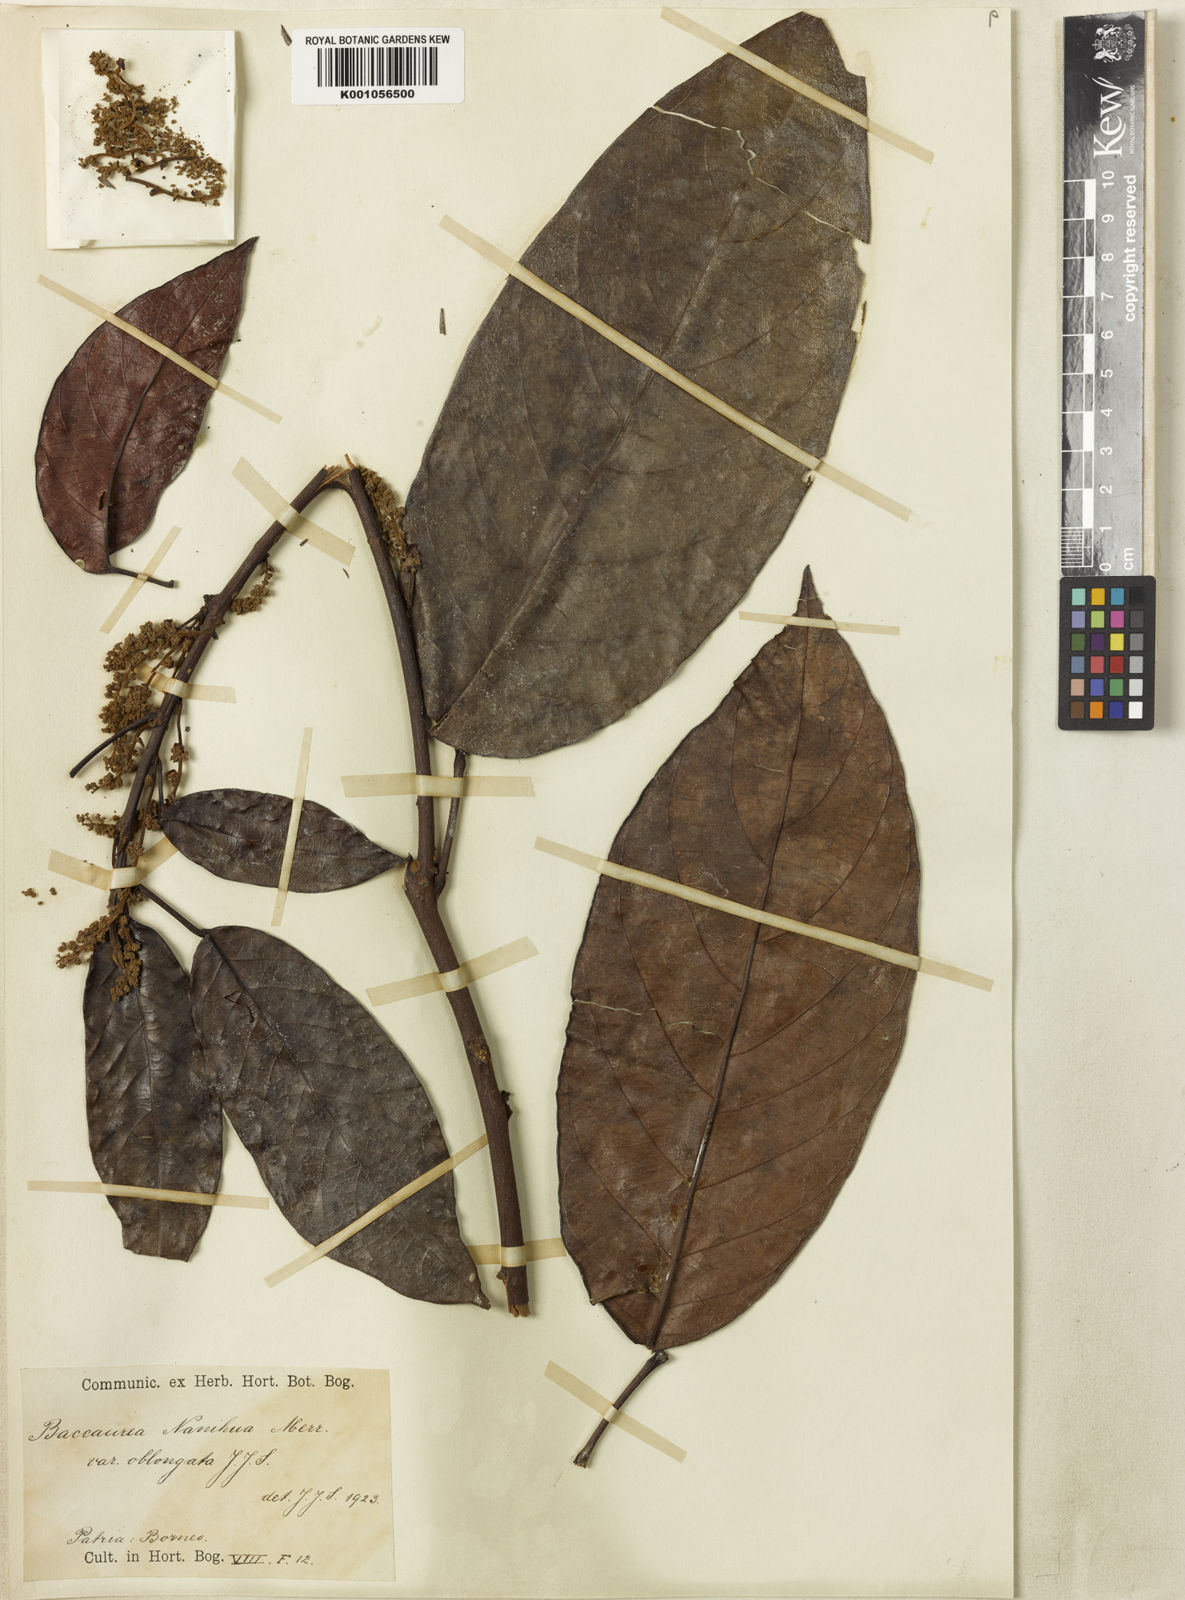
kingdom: Plantae
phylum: Tracheophyta
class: Magnoliopsida
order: Malpighiales
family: Phyllanthaceae
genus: Baccaurea
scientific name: Baccaurea nanihua
